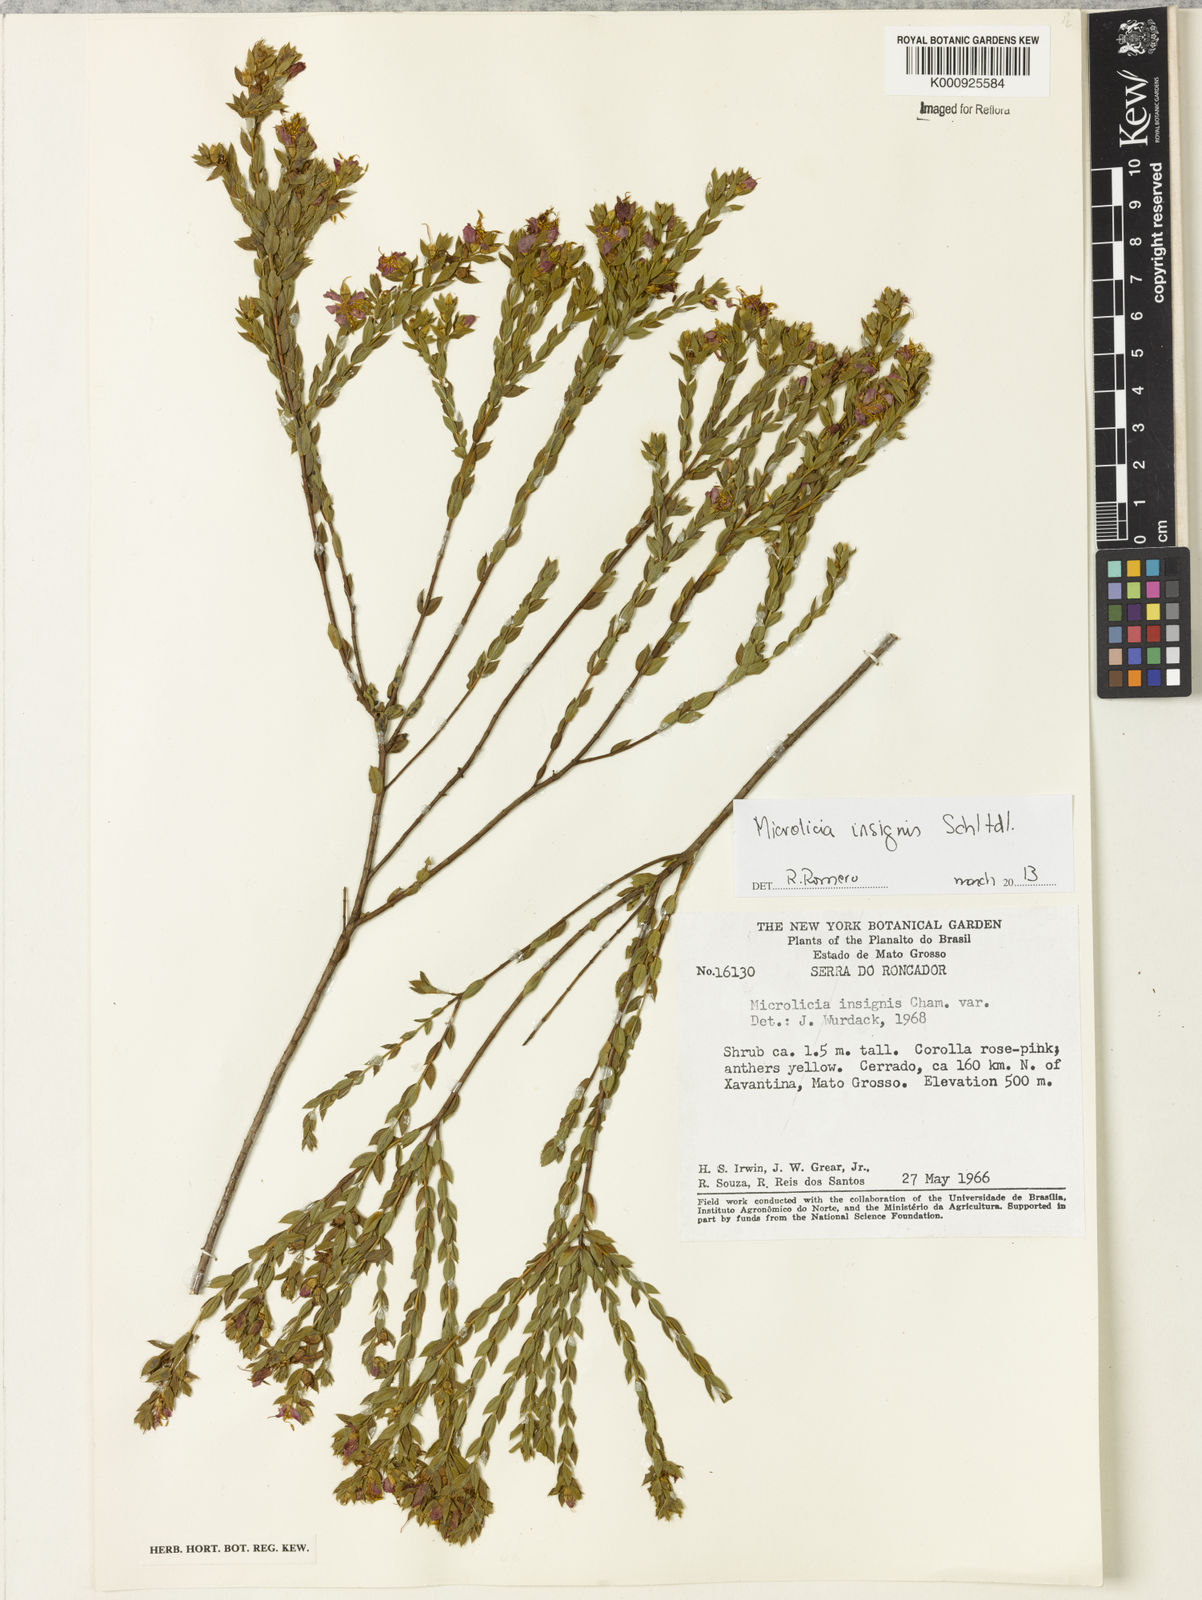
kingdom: Plantae
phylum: Tracheophyta
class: Magnoliopsida
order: Myrtales
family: Melastomataceae
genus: Microlicia
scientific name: Microlicia
